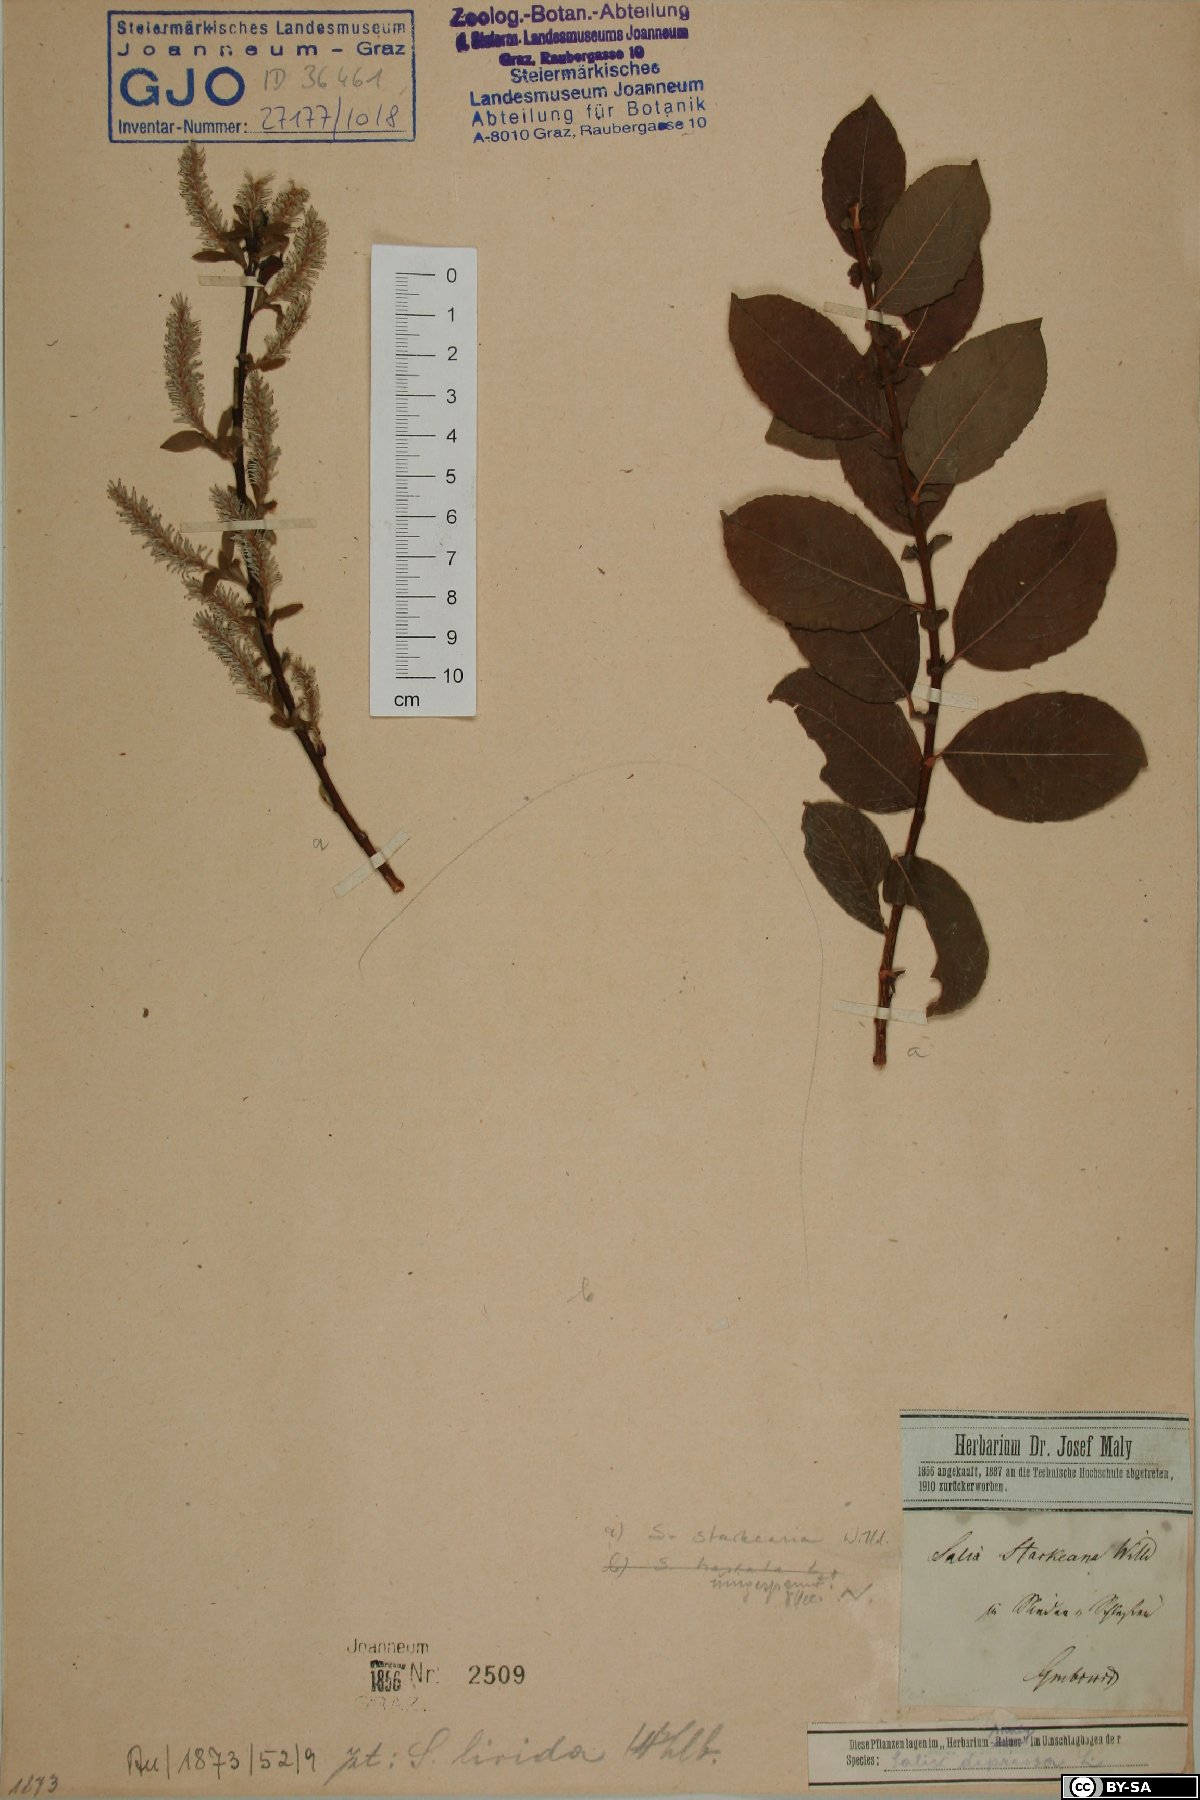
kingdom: Plantae
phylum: Tracheophyta
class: Magnoliopsida
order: Malpighiales
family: Salicaceae
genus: Salix
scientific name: Salix starkeana
